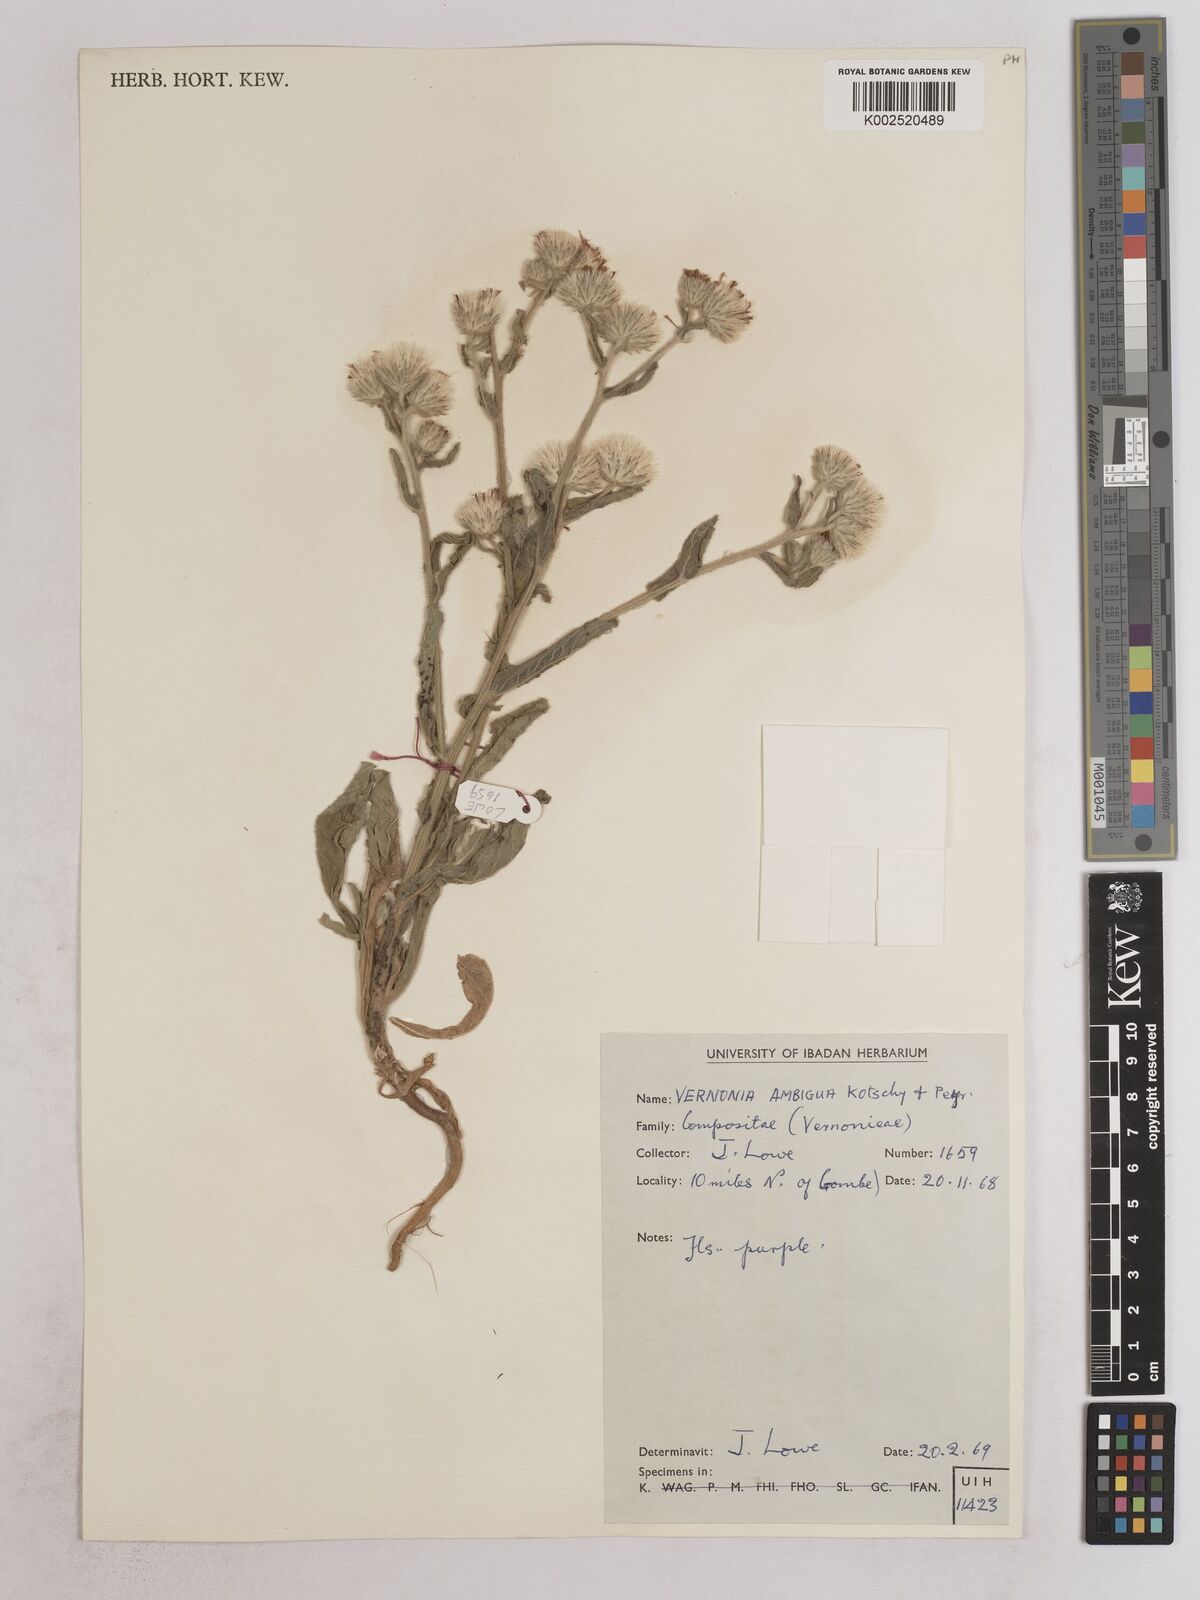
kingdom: Plantae
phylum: Tracheophyta
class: Magnoliopsida
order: Asterales
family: Asteraceae
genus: Vernoniastrum
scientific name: Vernoniastrum ambiguum
